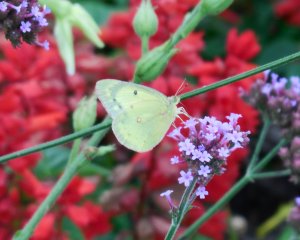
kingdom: Animalia
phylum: Arthropoda
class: Insecta
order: Lepidoptera
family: Pieridae
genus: Colias
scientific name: Colias philodice
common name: Clouded Sulphur
